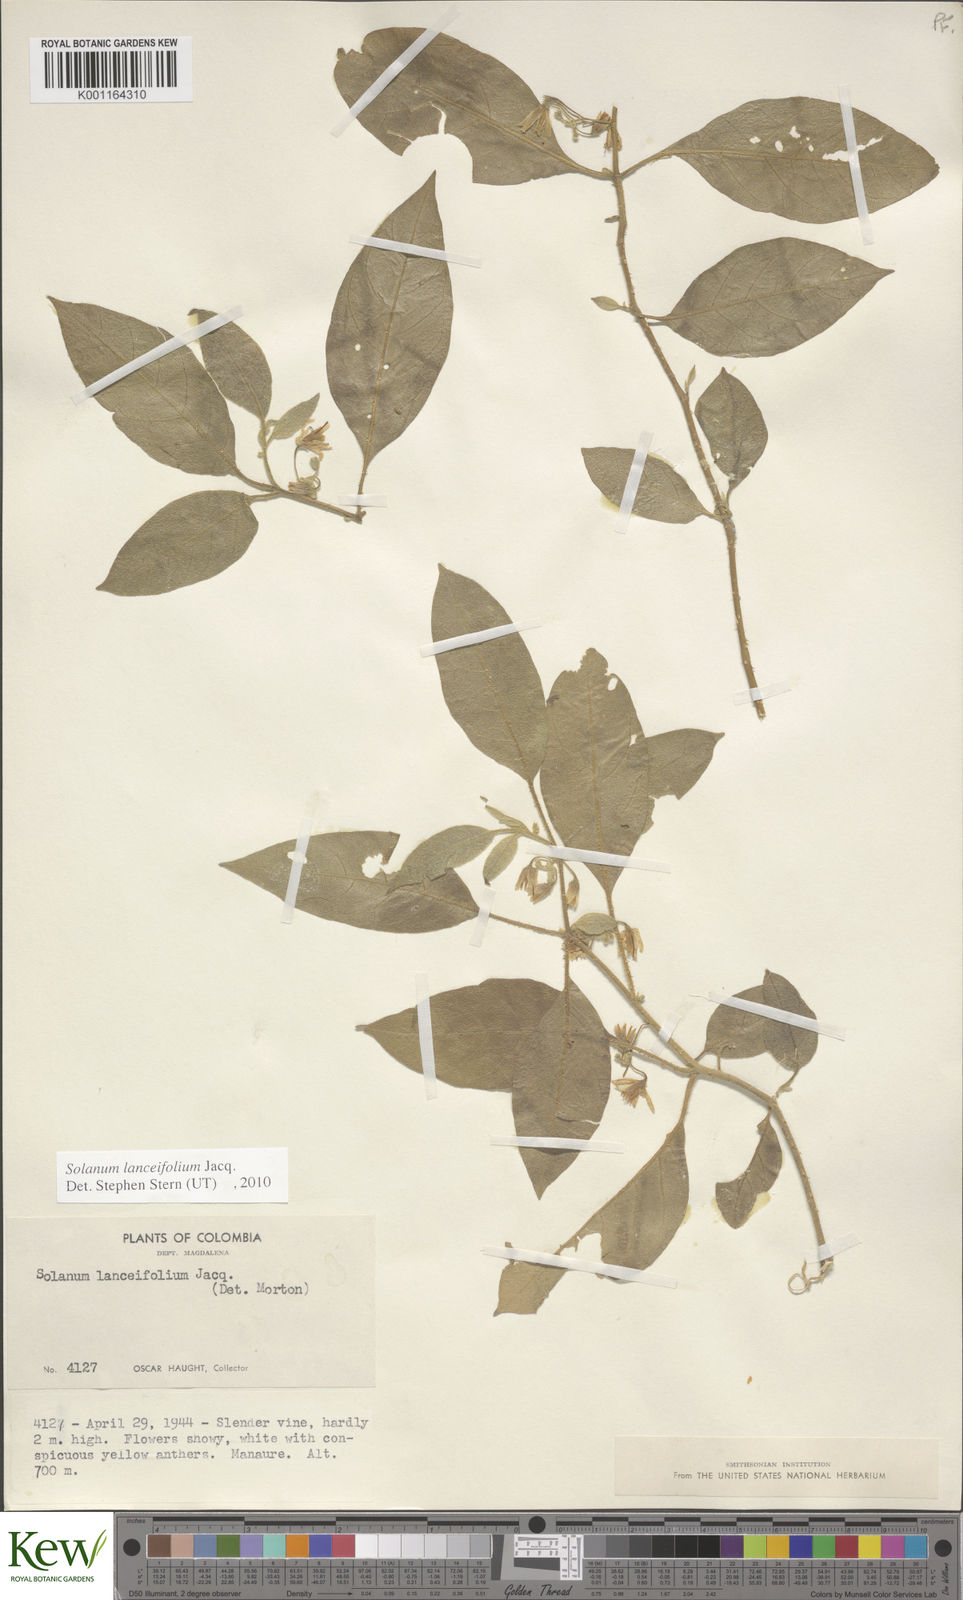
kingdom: Plantae
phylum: Tracheophyta
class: Magnoliopsida
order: Solanales
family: Solanaceae
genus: Solanum
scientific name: Solanum lanceifolium
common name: Lanceleaf nightshade
